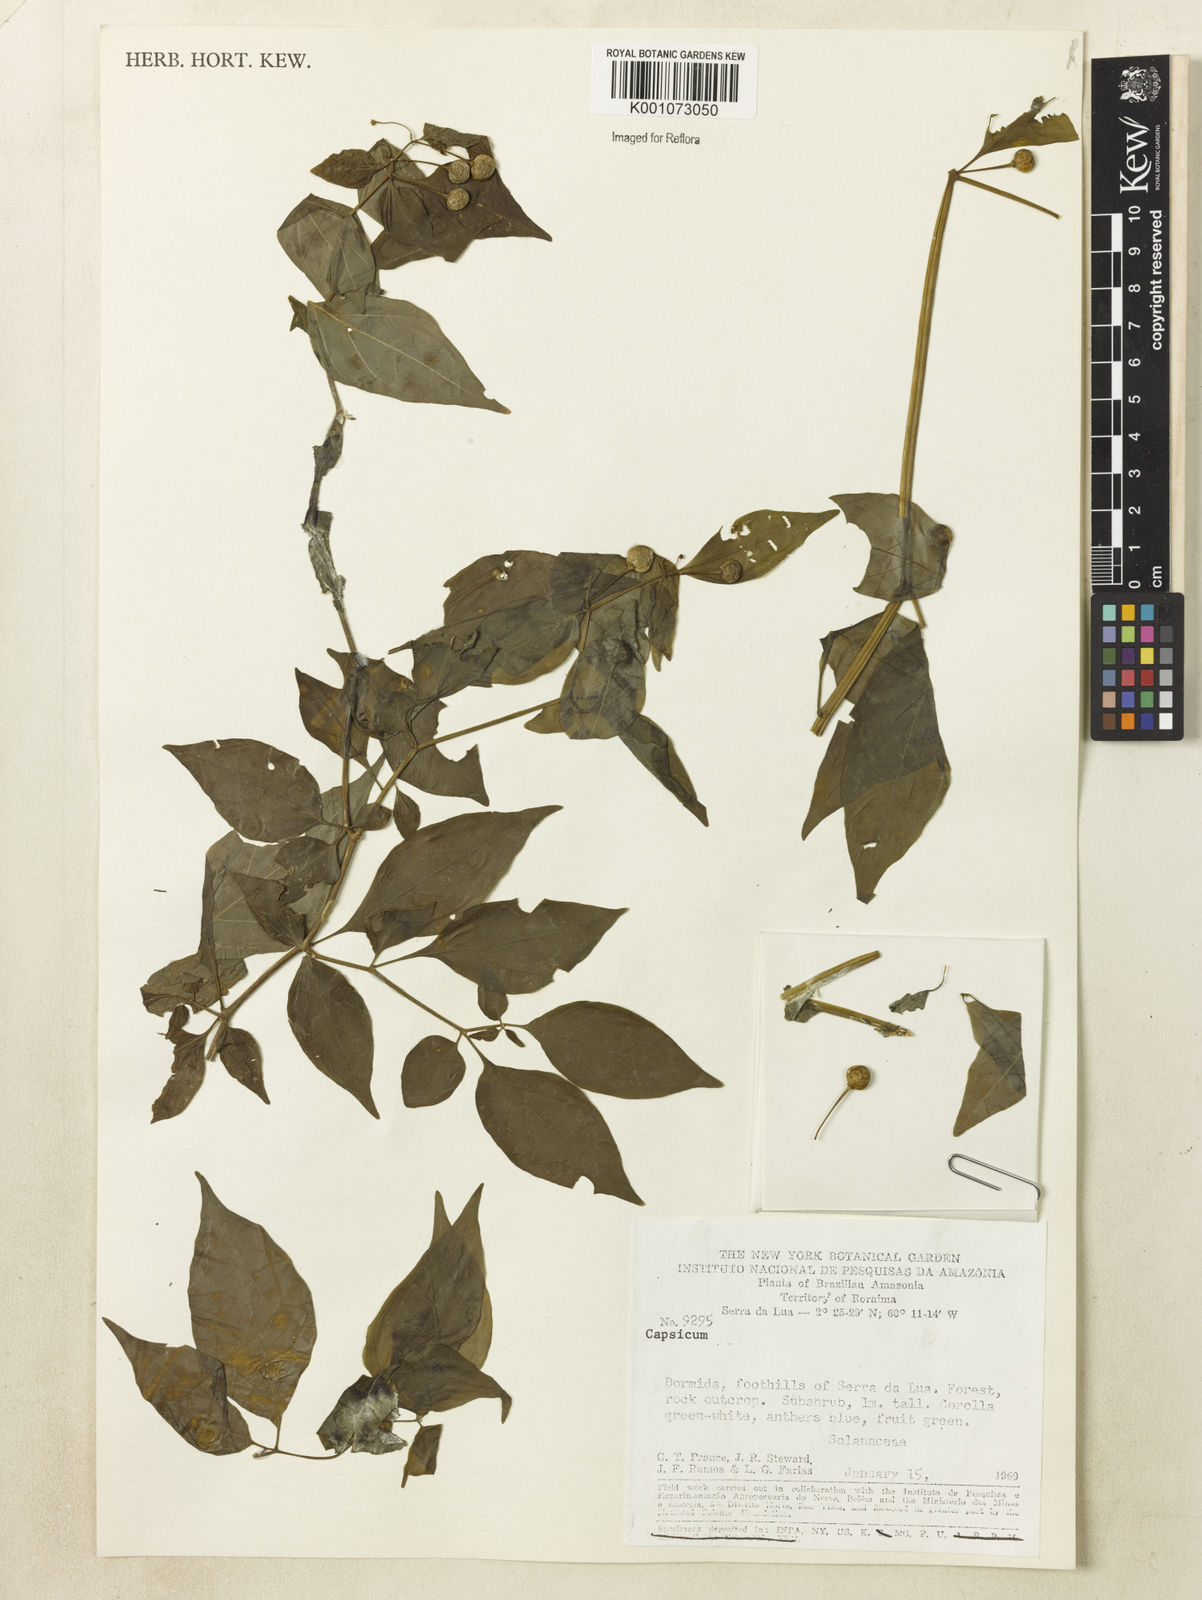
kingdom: Plantae
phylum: Tracheophyta
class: Magnoliopsida
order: Solanales
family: Solanaceae
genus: Capsicum
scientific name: Capsicum
